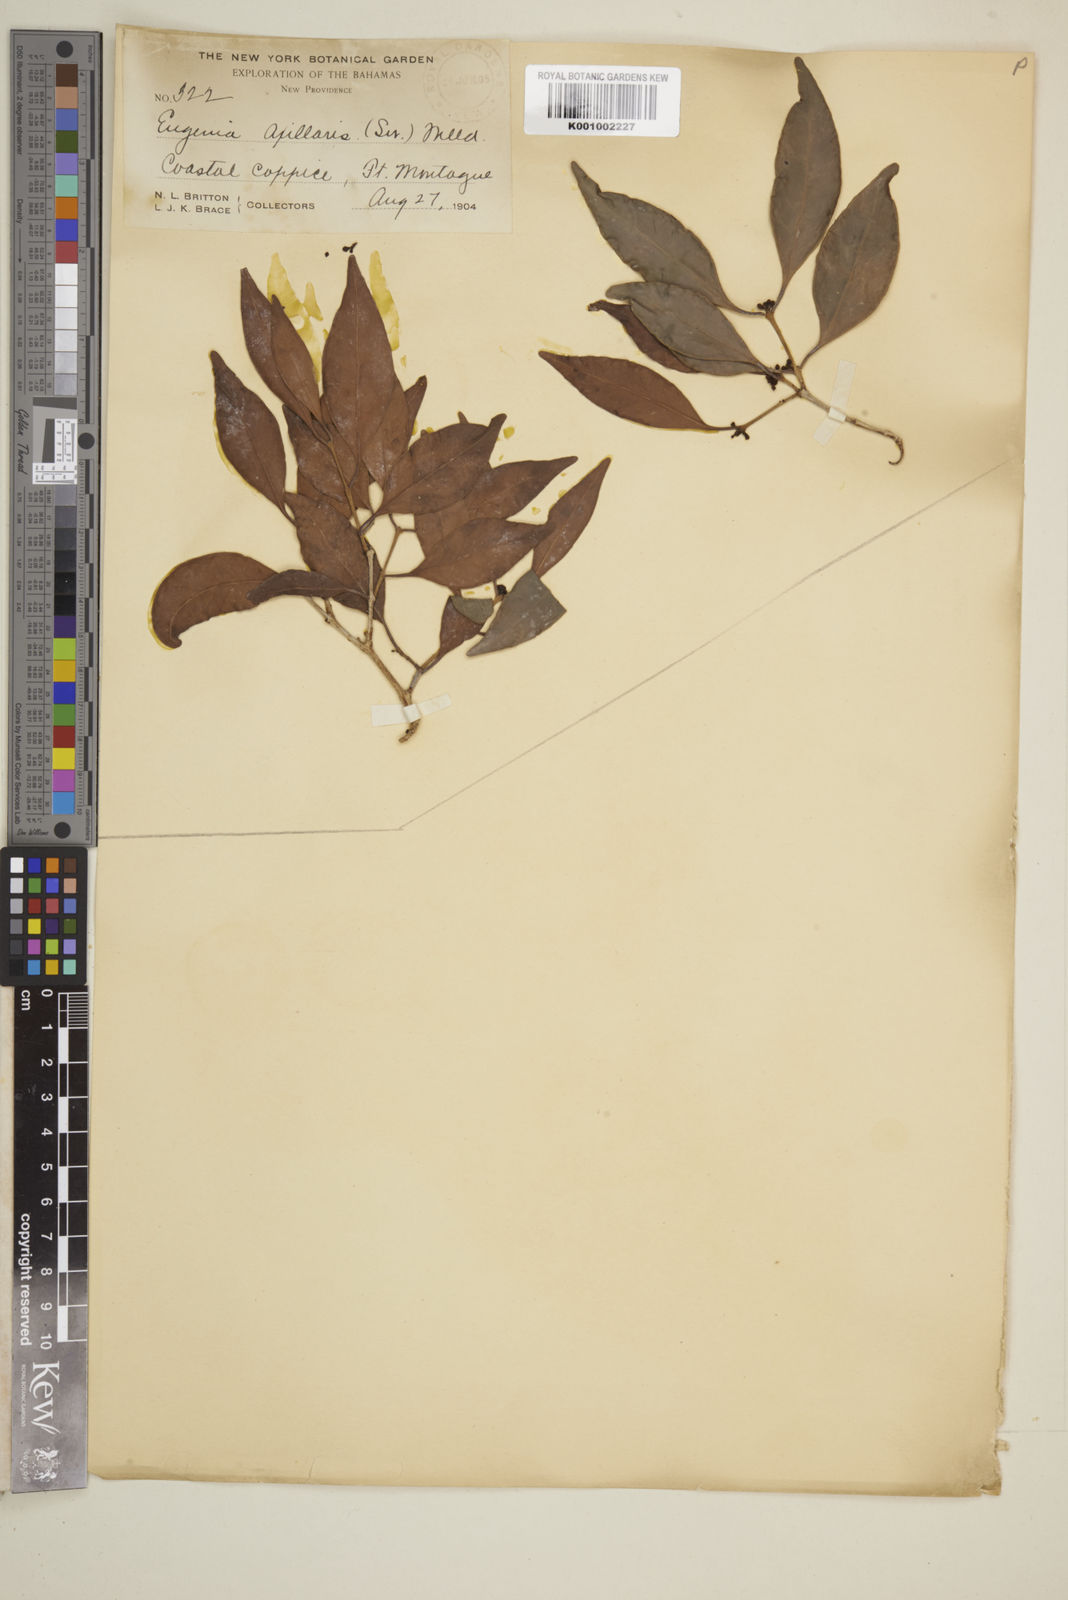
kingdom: Plantae
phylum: Tracheophyta
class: Magnoliopsida
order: Myrtales
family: Myrtaceae
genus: Eugenia
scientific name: Eugenia axillaris
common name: Choaky berry
